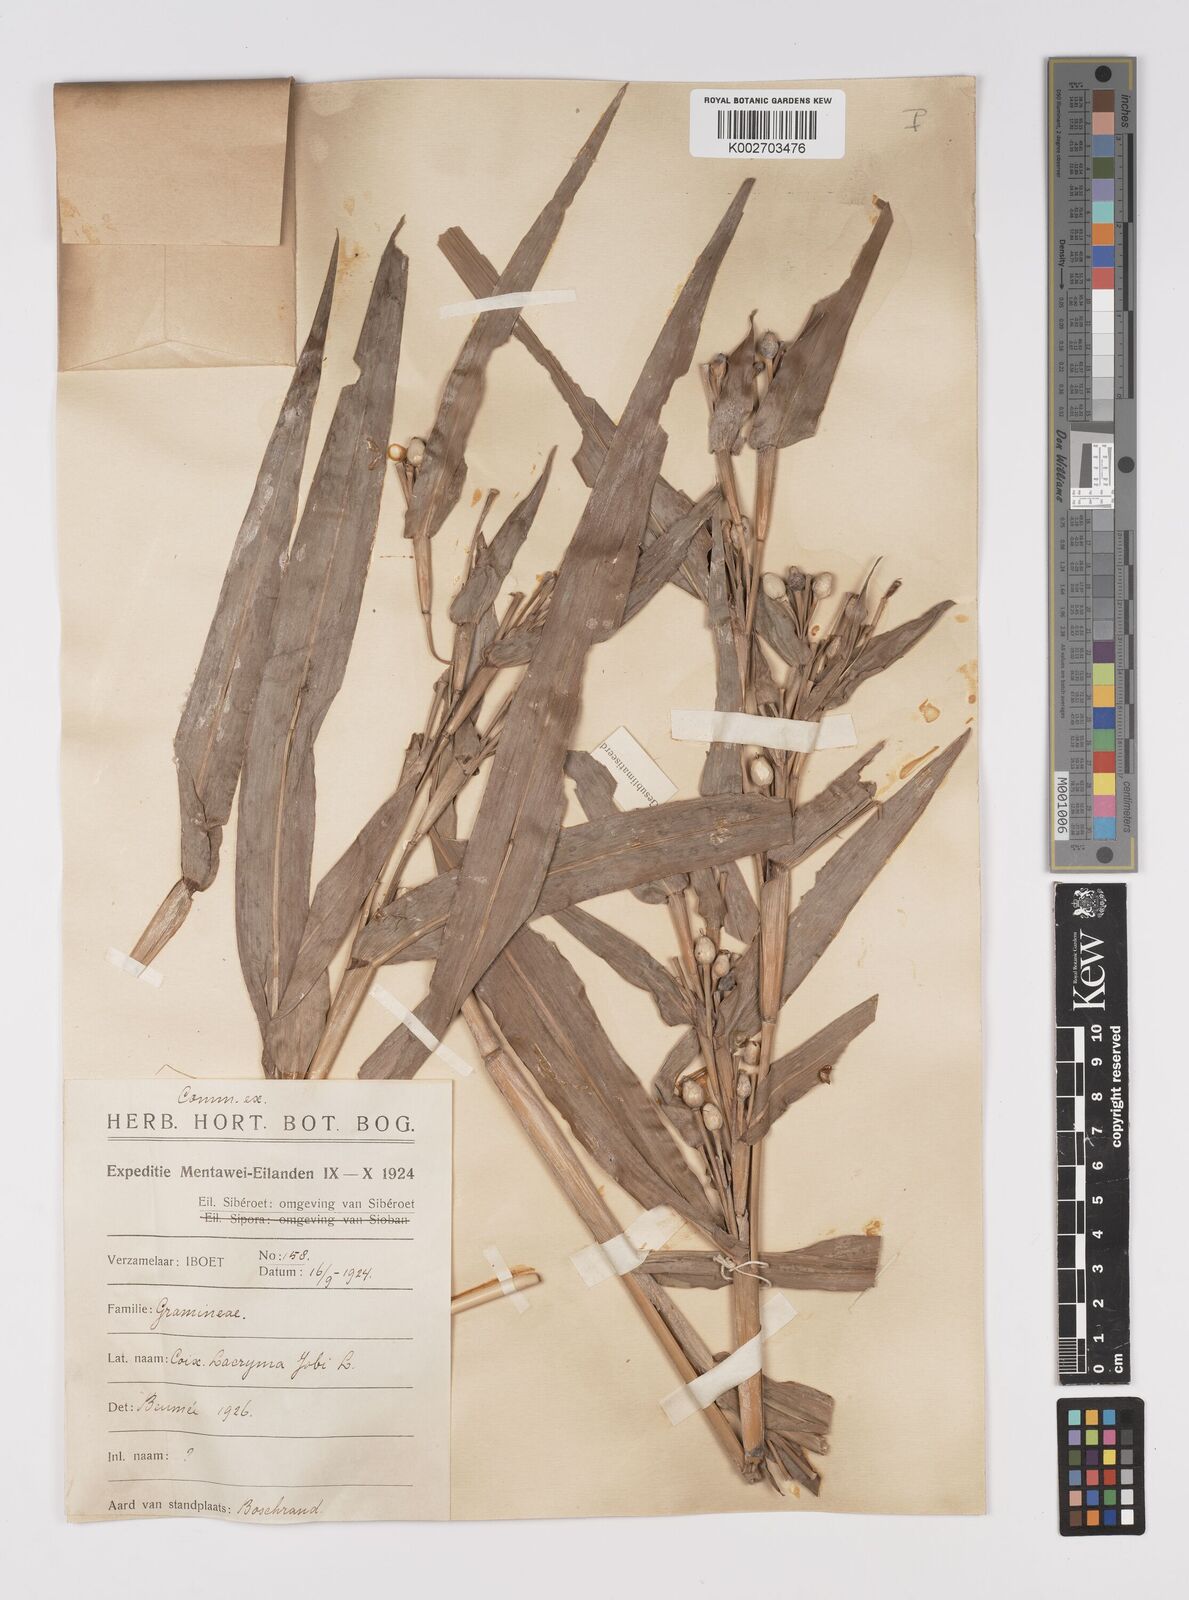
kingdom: Plantae
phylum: Tracheophyta
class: Liliopsida
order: Poales
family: Poaceae
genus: Coix
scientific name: Coix lacryma-jobi
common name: Job's tears
